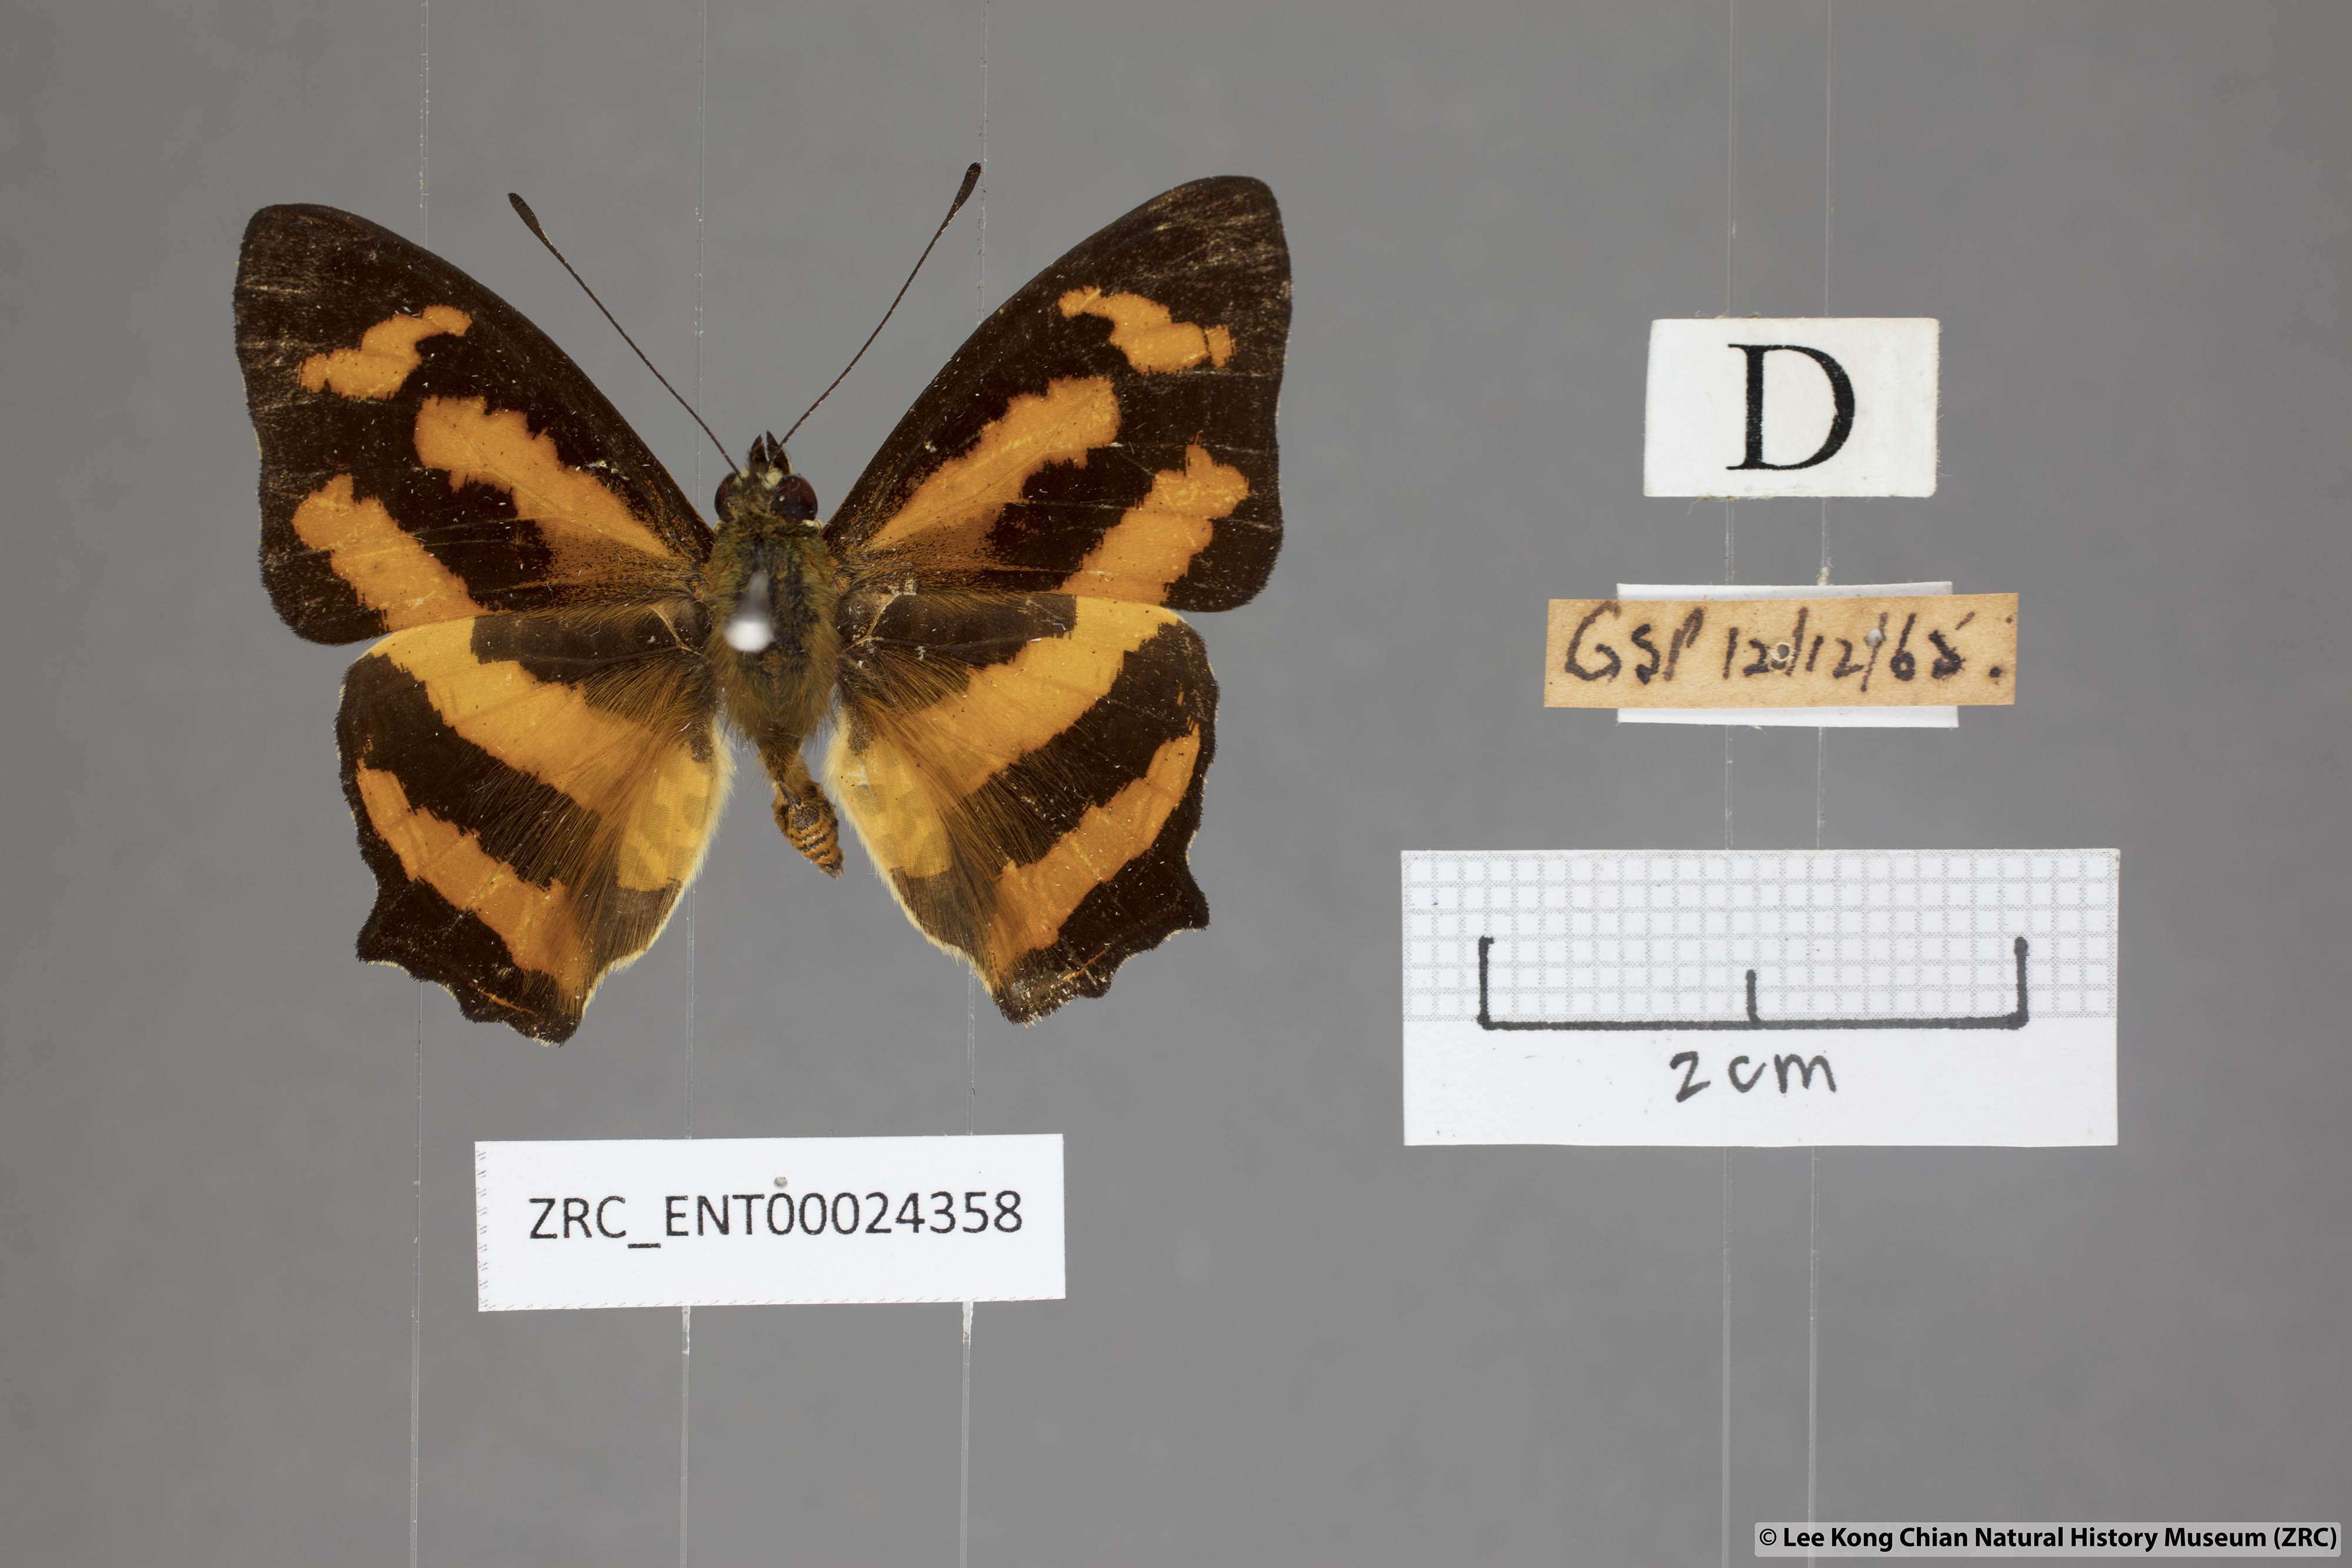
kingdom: Animalia
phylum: Arthropoda
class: Insecta
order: Lepidoptera
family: Nymphalidae
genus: Symbrenthia
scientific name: Symbrenthia hypselis
